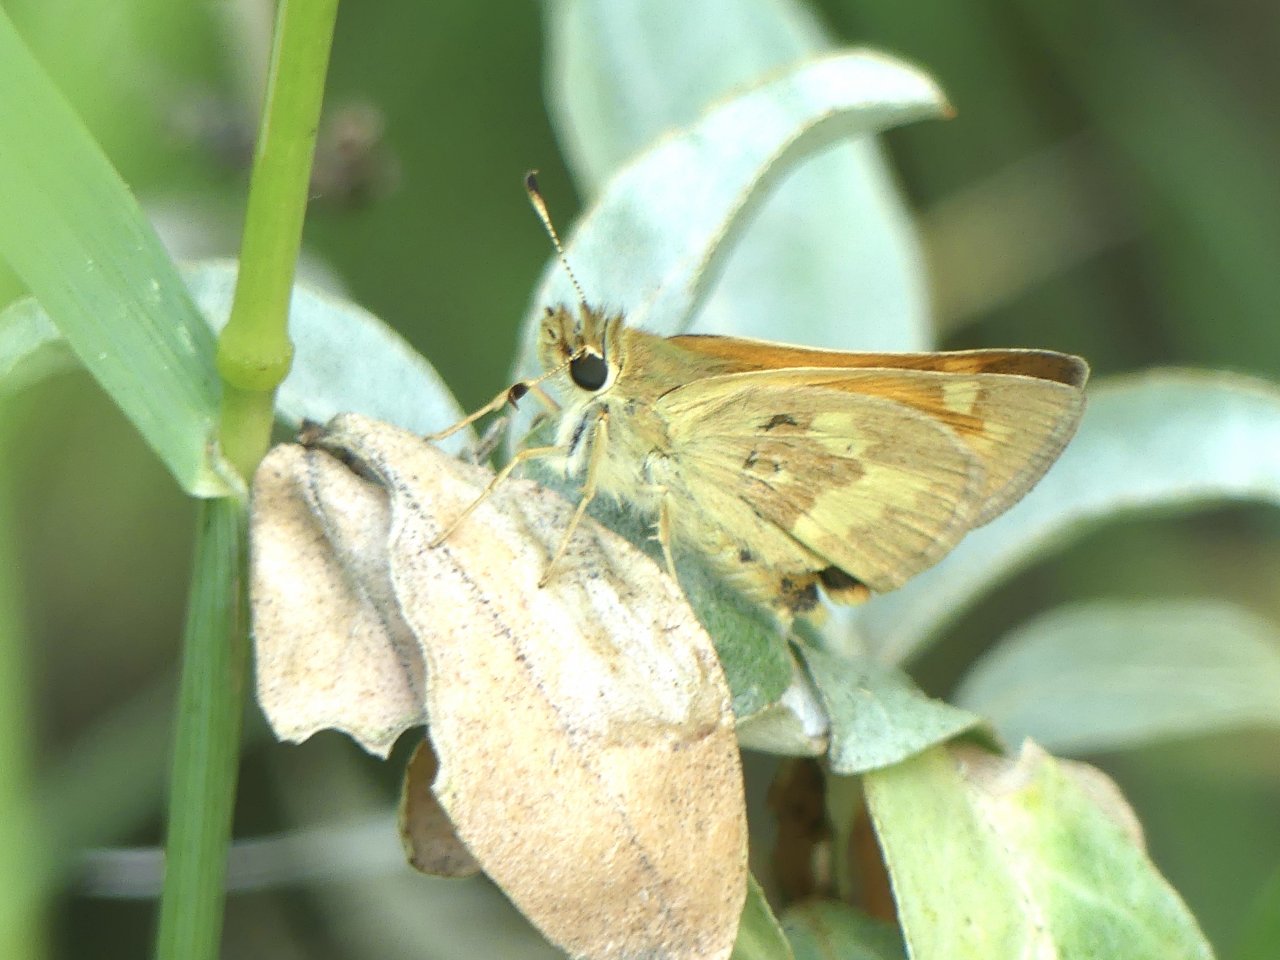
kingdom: Animalia
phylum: Arthropoda
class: Insecta
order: Lepidoptera
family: Hesperiidae
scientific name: Hesperiidae
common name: Skippers
